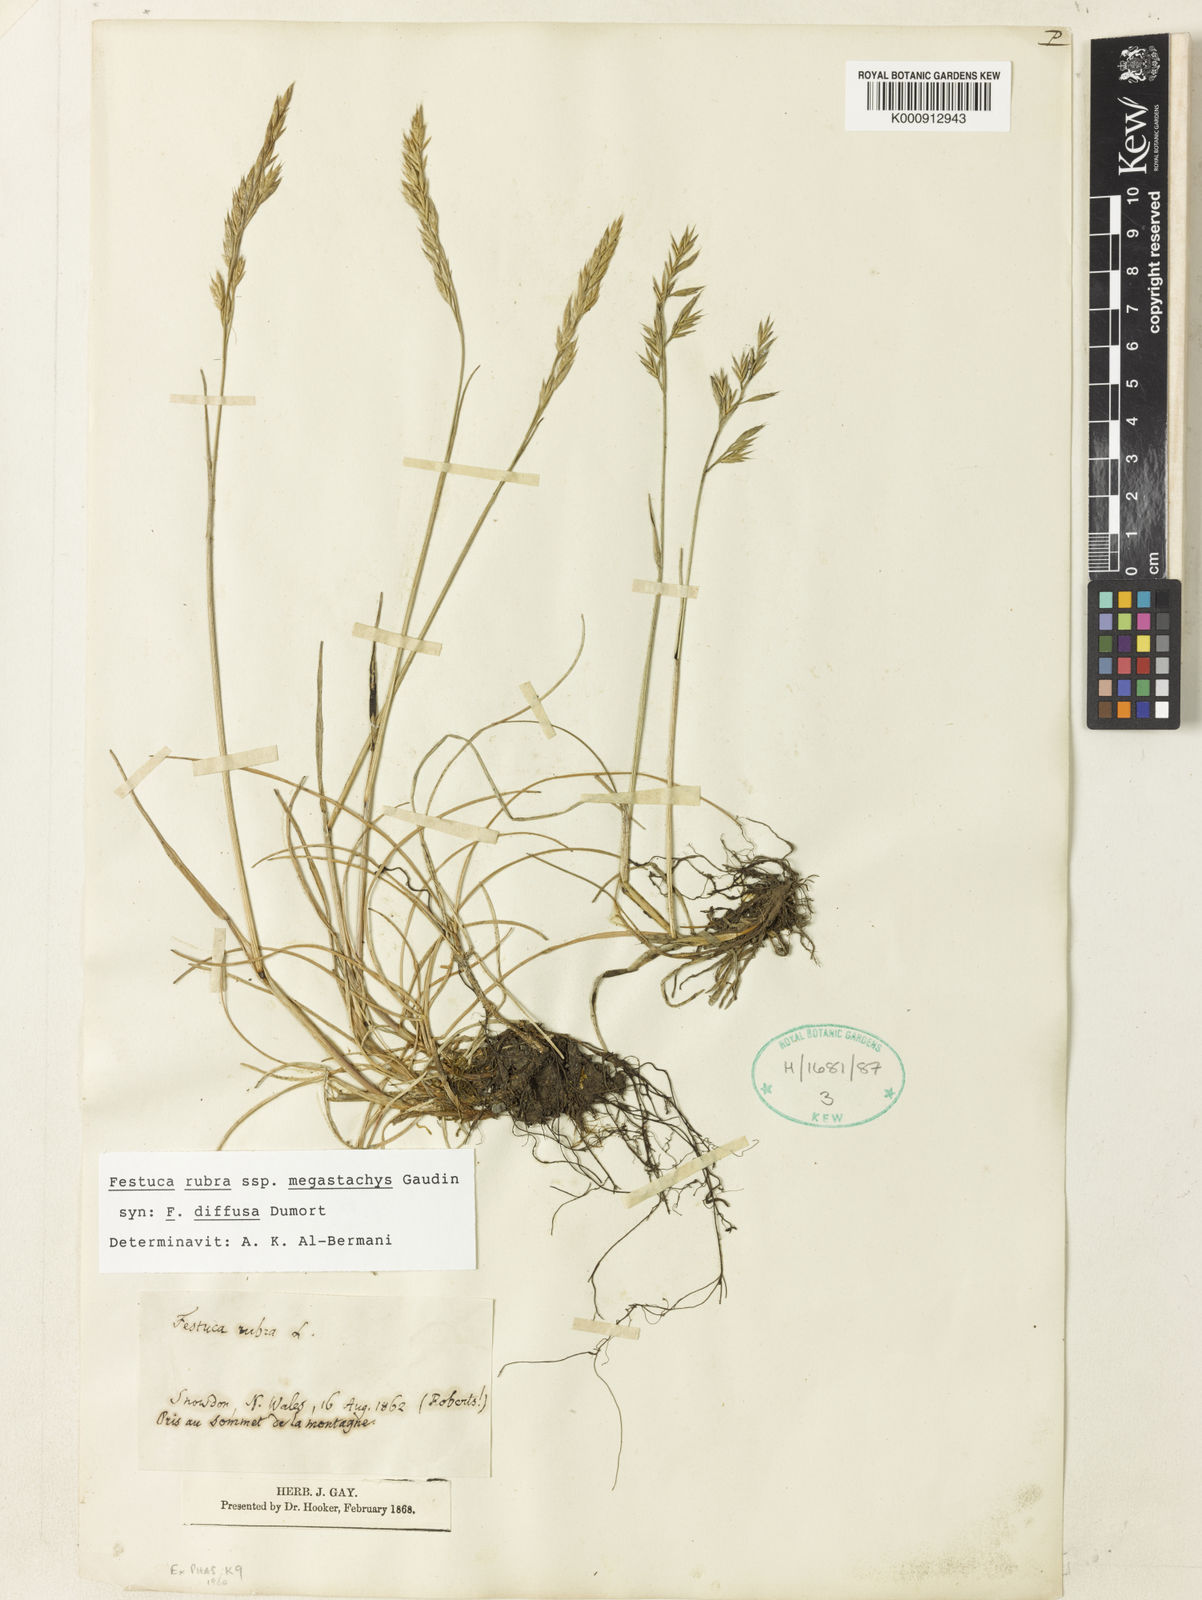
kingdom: Plantae
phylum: Tracheophyta
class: Liliopsida
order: Poales
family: Poaceae
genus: Festuca
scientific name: Festuca rubra
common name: Red fescue
